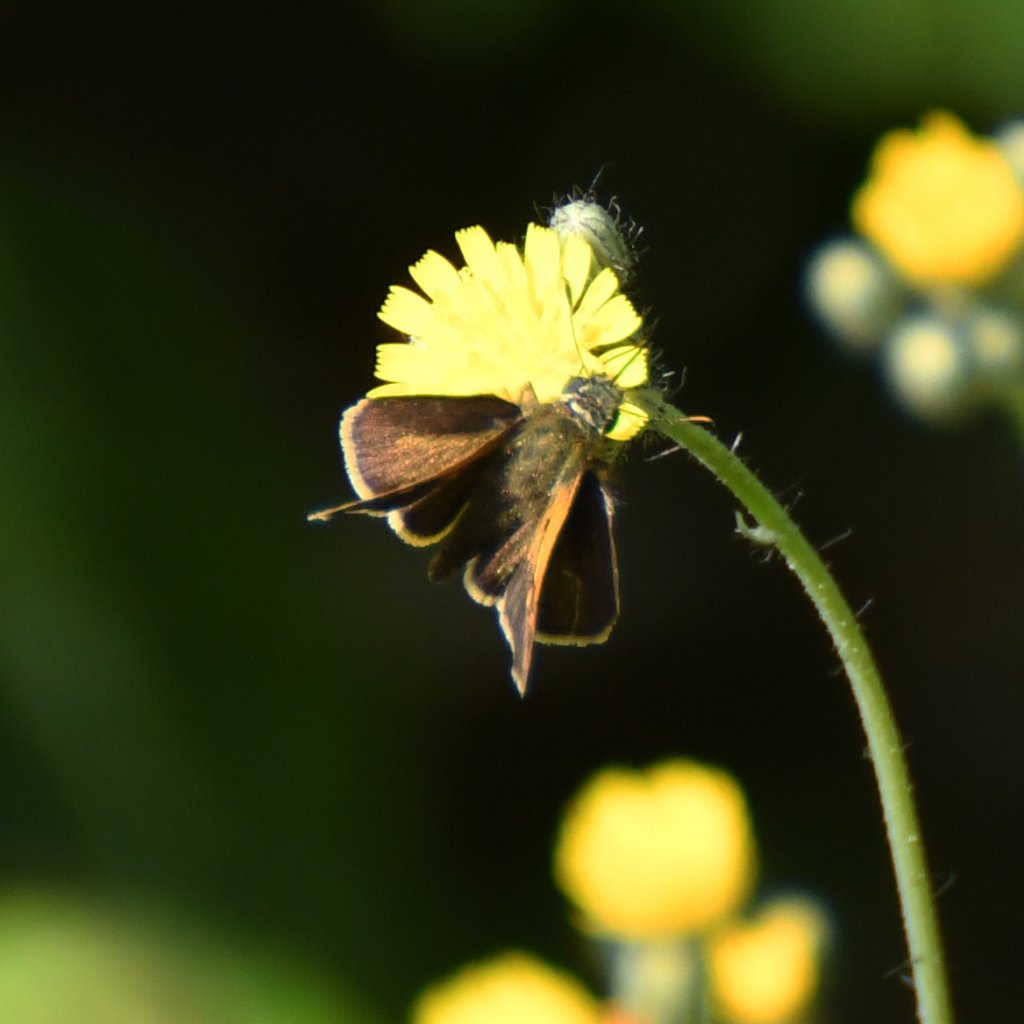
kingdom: Animalia
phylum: Arthropoda
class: Insecta
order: Lepidoptera
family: Hesperiidae
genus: Polites
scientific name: Polites themistocles
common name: Tawny-edged Skipper
